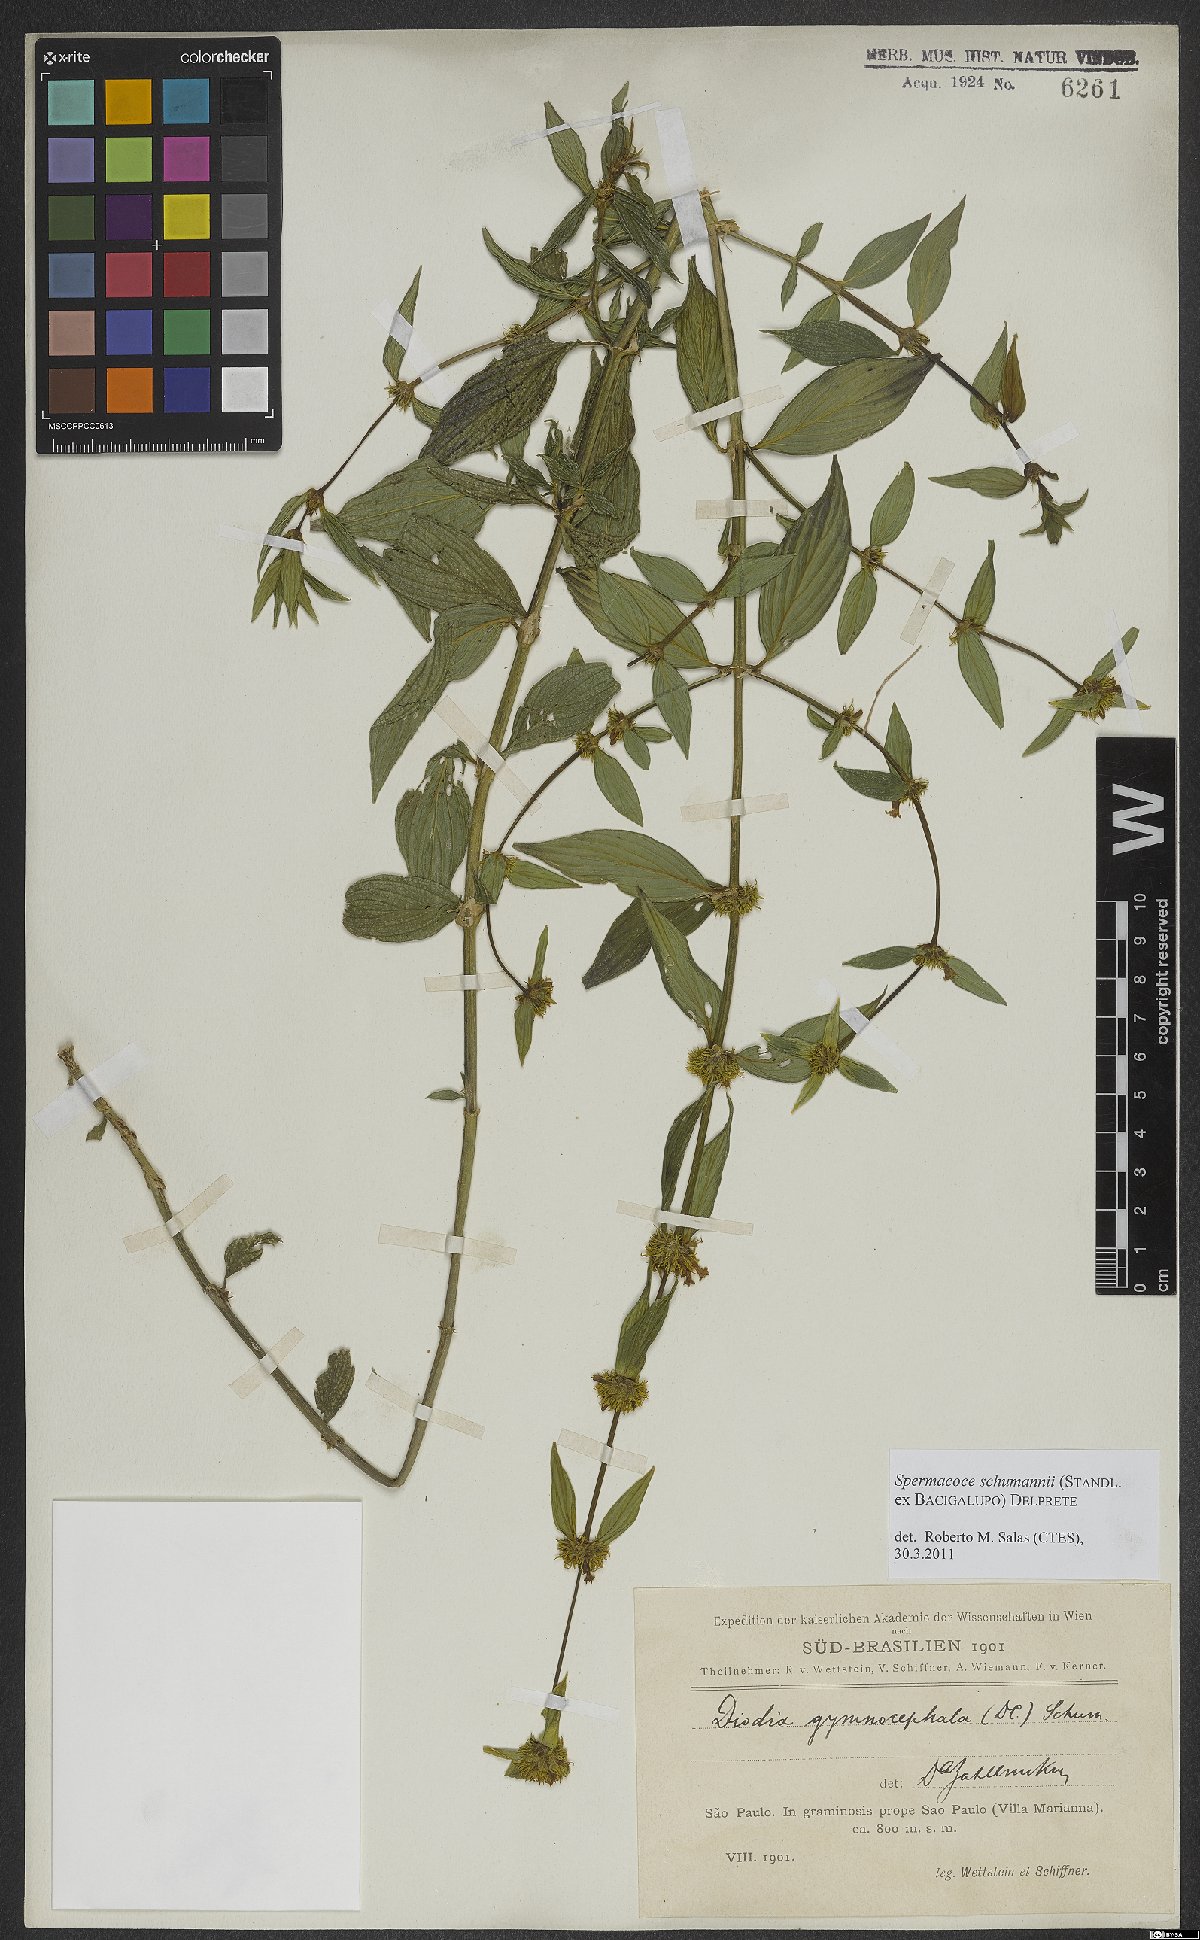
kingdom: Plantae
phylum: Tracheophyta
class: Magnoliopsida
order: Gentianales
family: Rubiaceae
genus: Spermacoce
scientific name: Spermacoce schumannii
